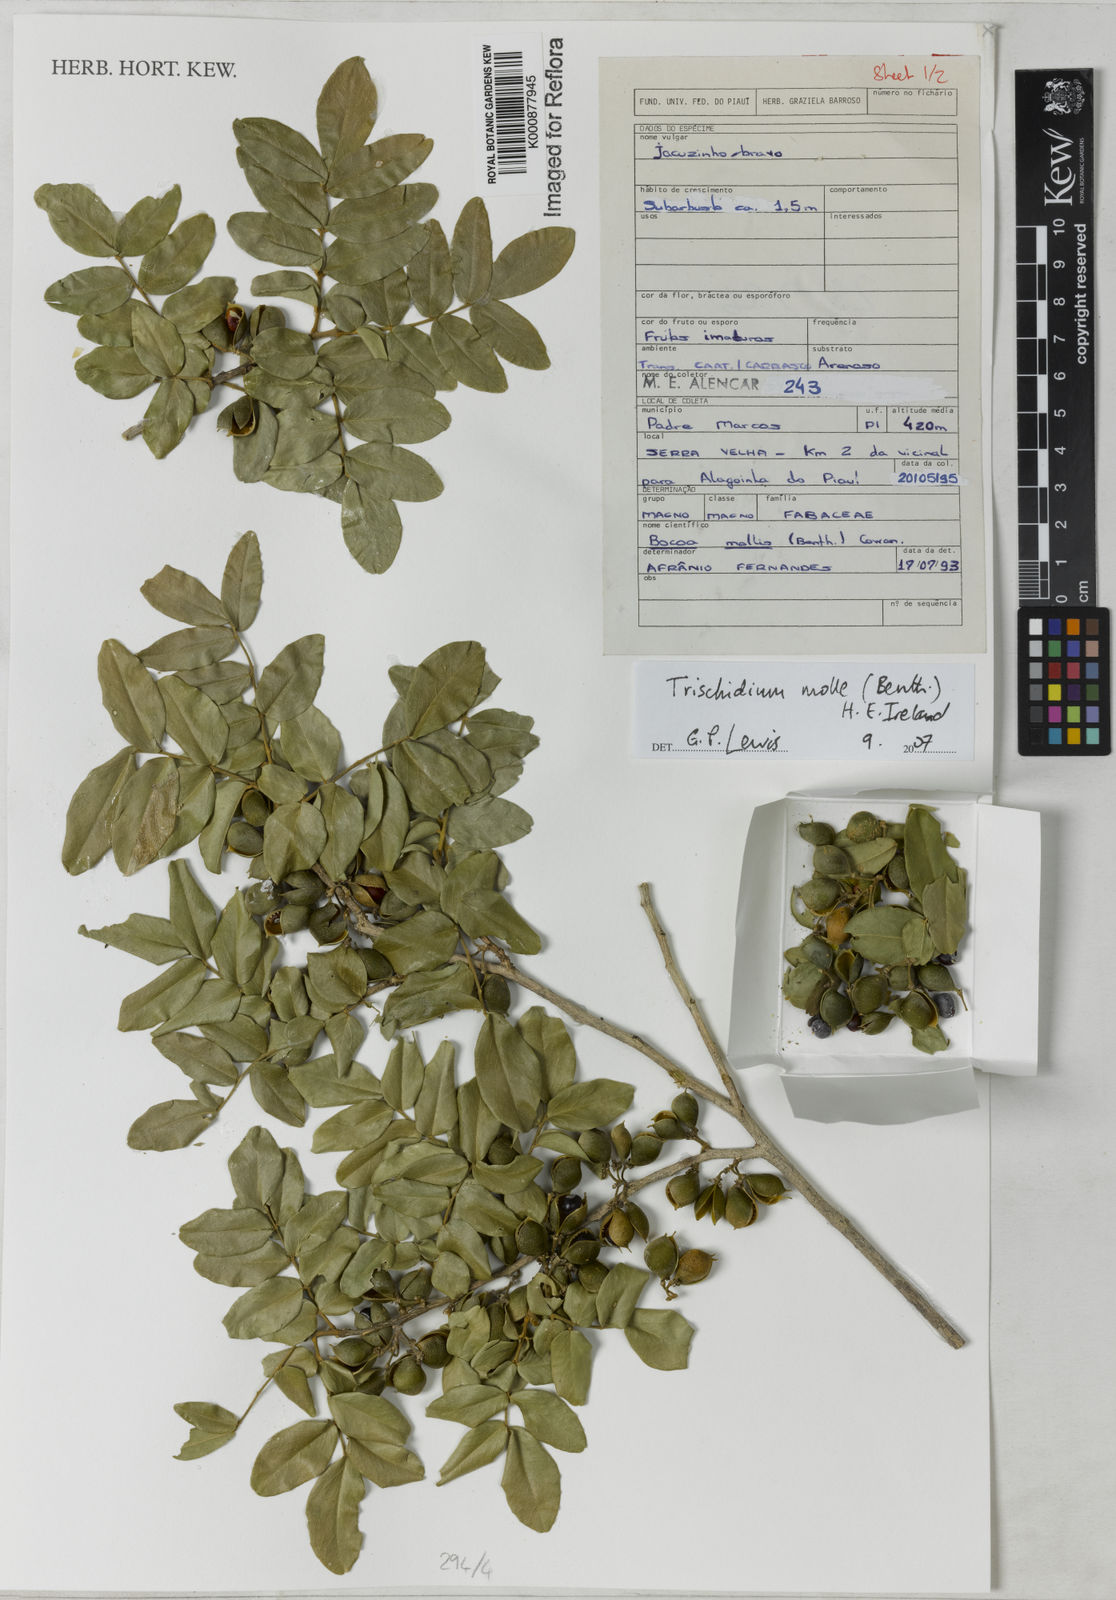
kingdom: Plantae
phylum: Tracheophyta
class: Magnoliopsida
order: Fabales
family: Fabaceae
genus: Trischidium
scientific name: Trischidium molle
